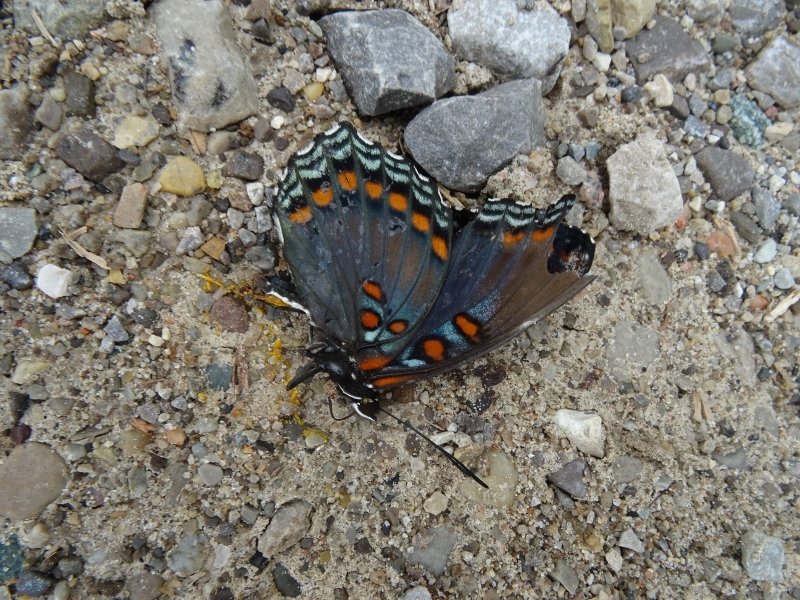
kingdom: Animalia
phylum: Arthropoda
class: Insecta
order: Lepidoptera
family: Nymphalidae
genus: Limenitis
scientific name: Limenitis astyanax
